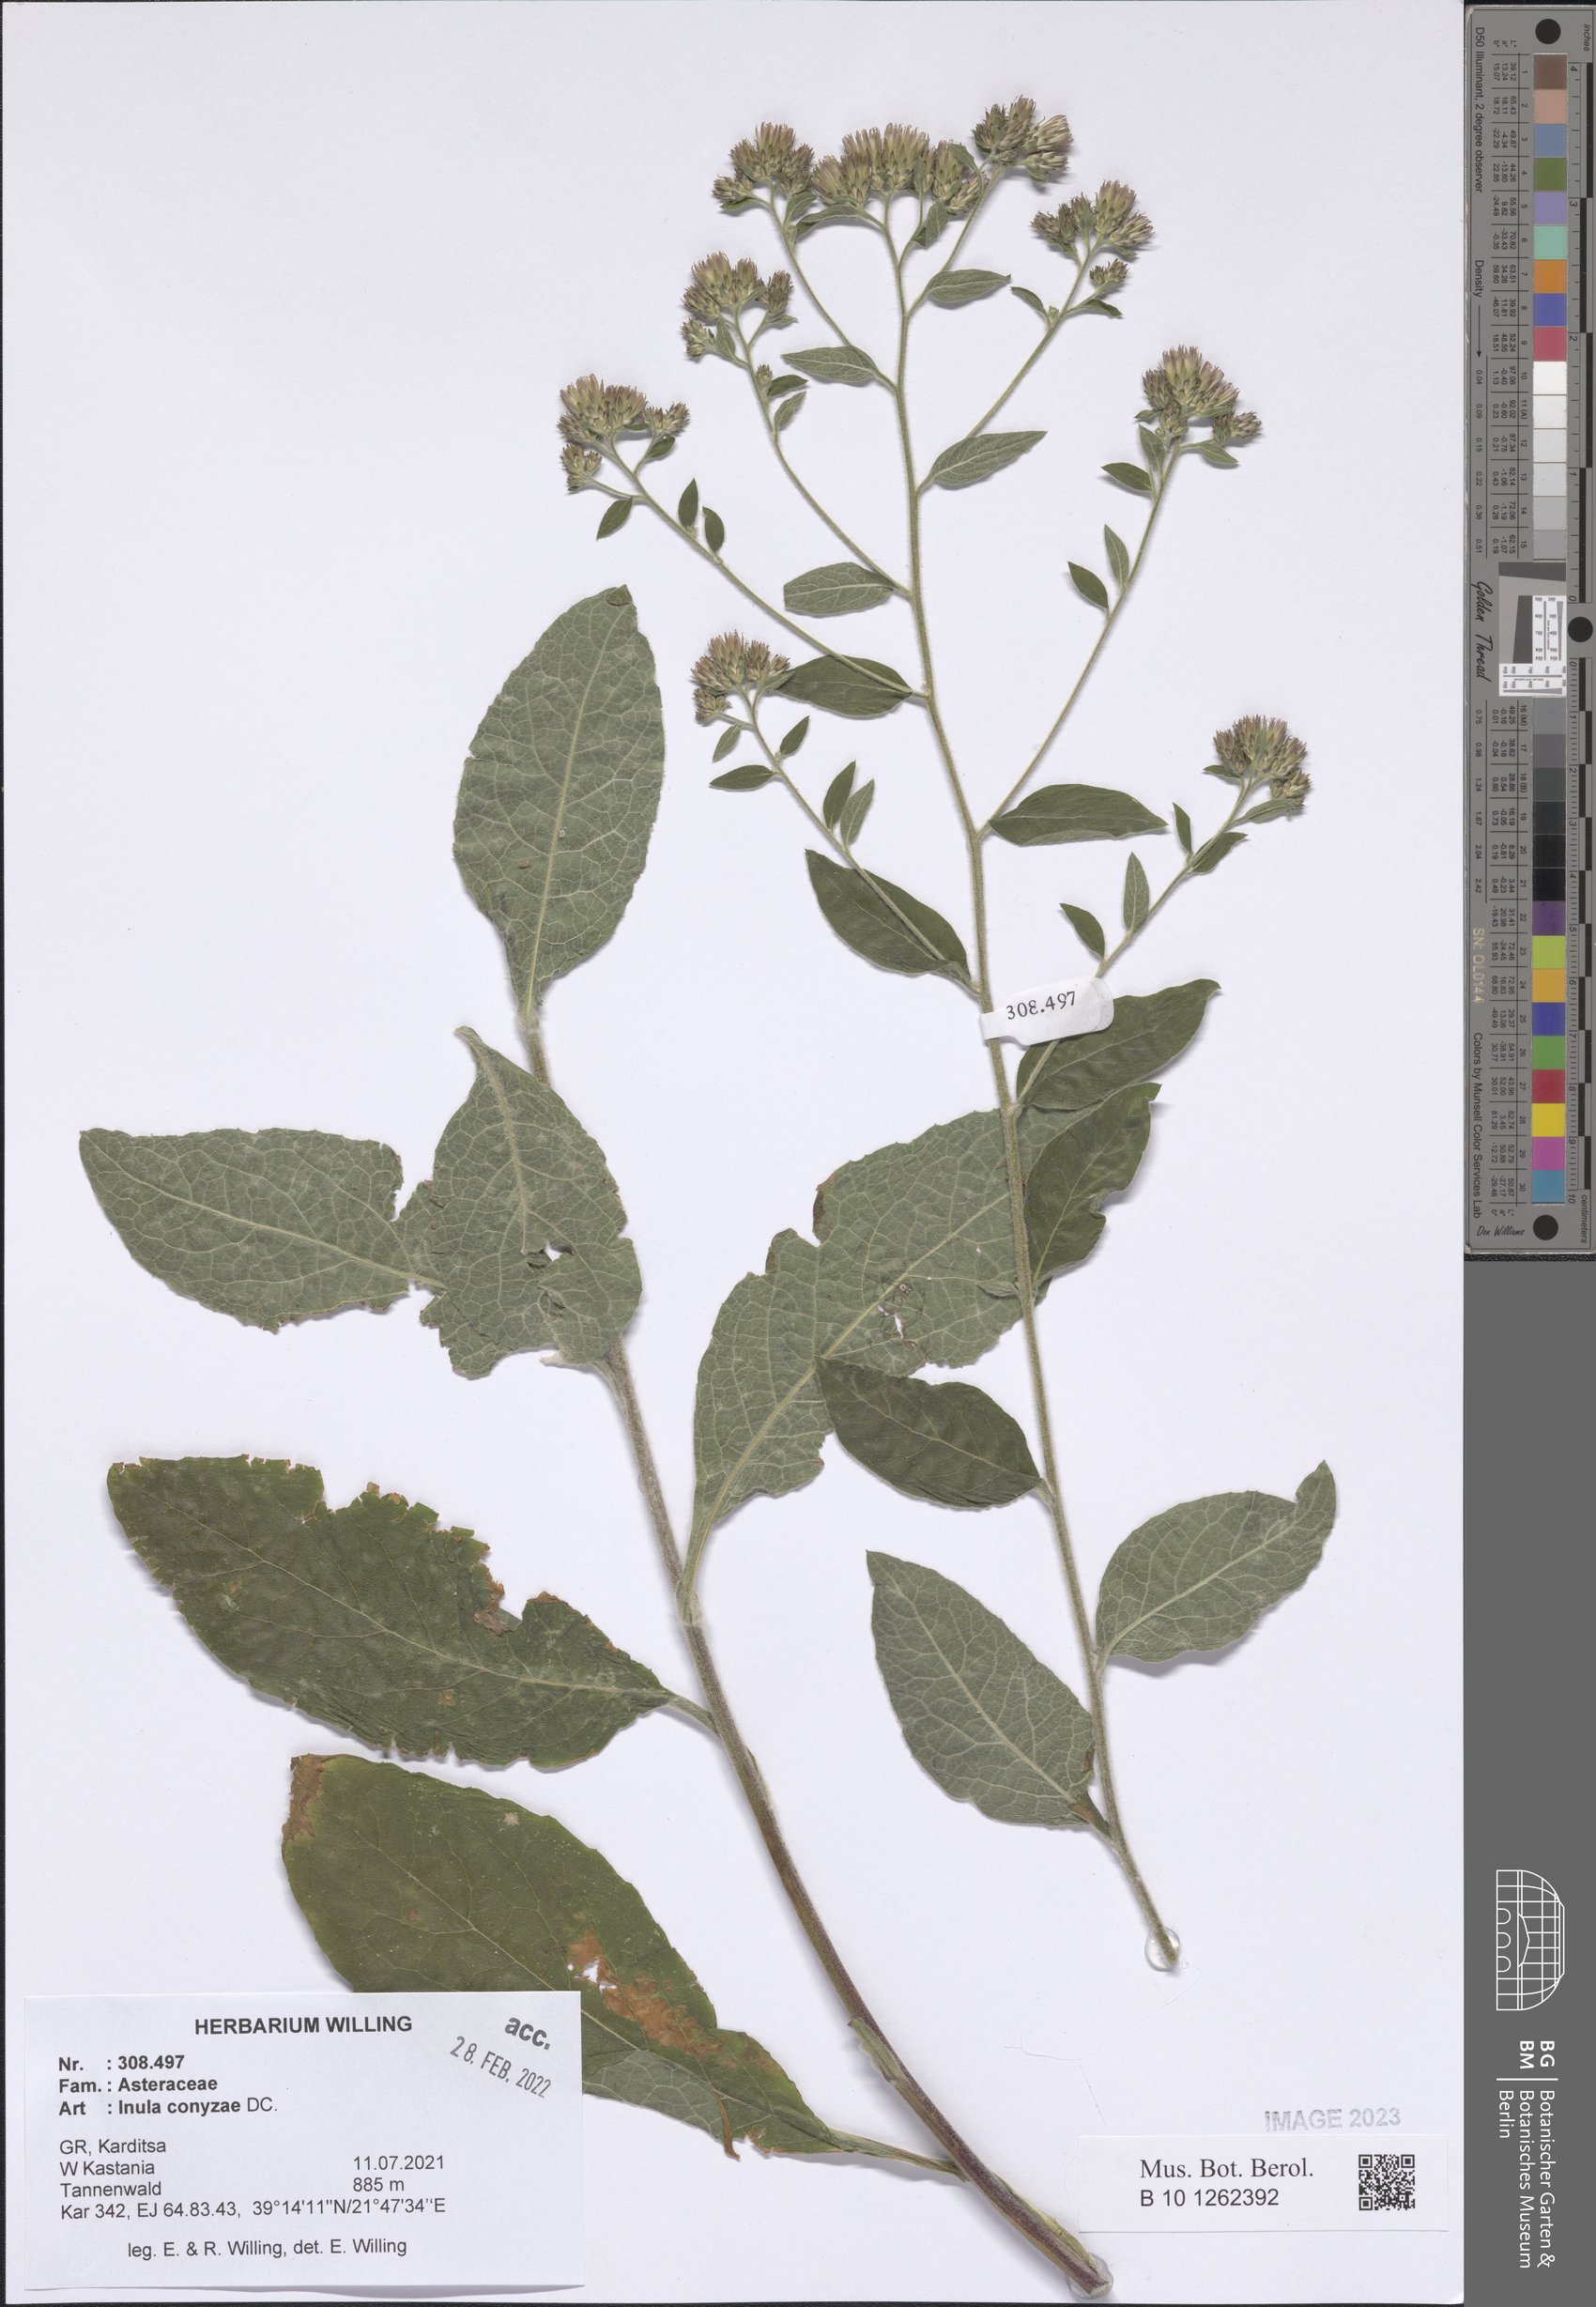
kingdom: Plantae
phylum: Tracheophyta
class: Magnoliopsida
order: Asterales
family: Asteraceae
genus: Pentanema
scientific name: Pentanema squarrosum
